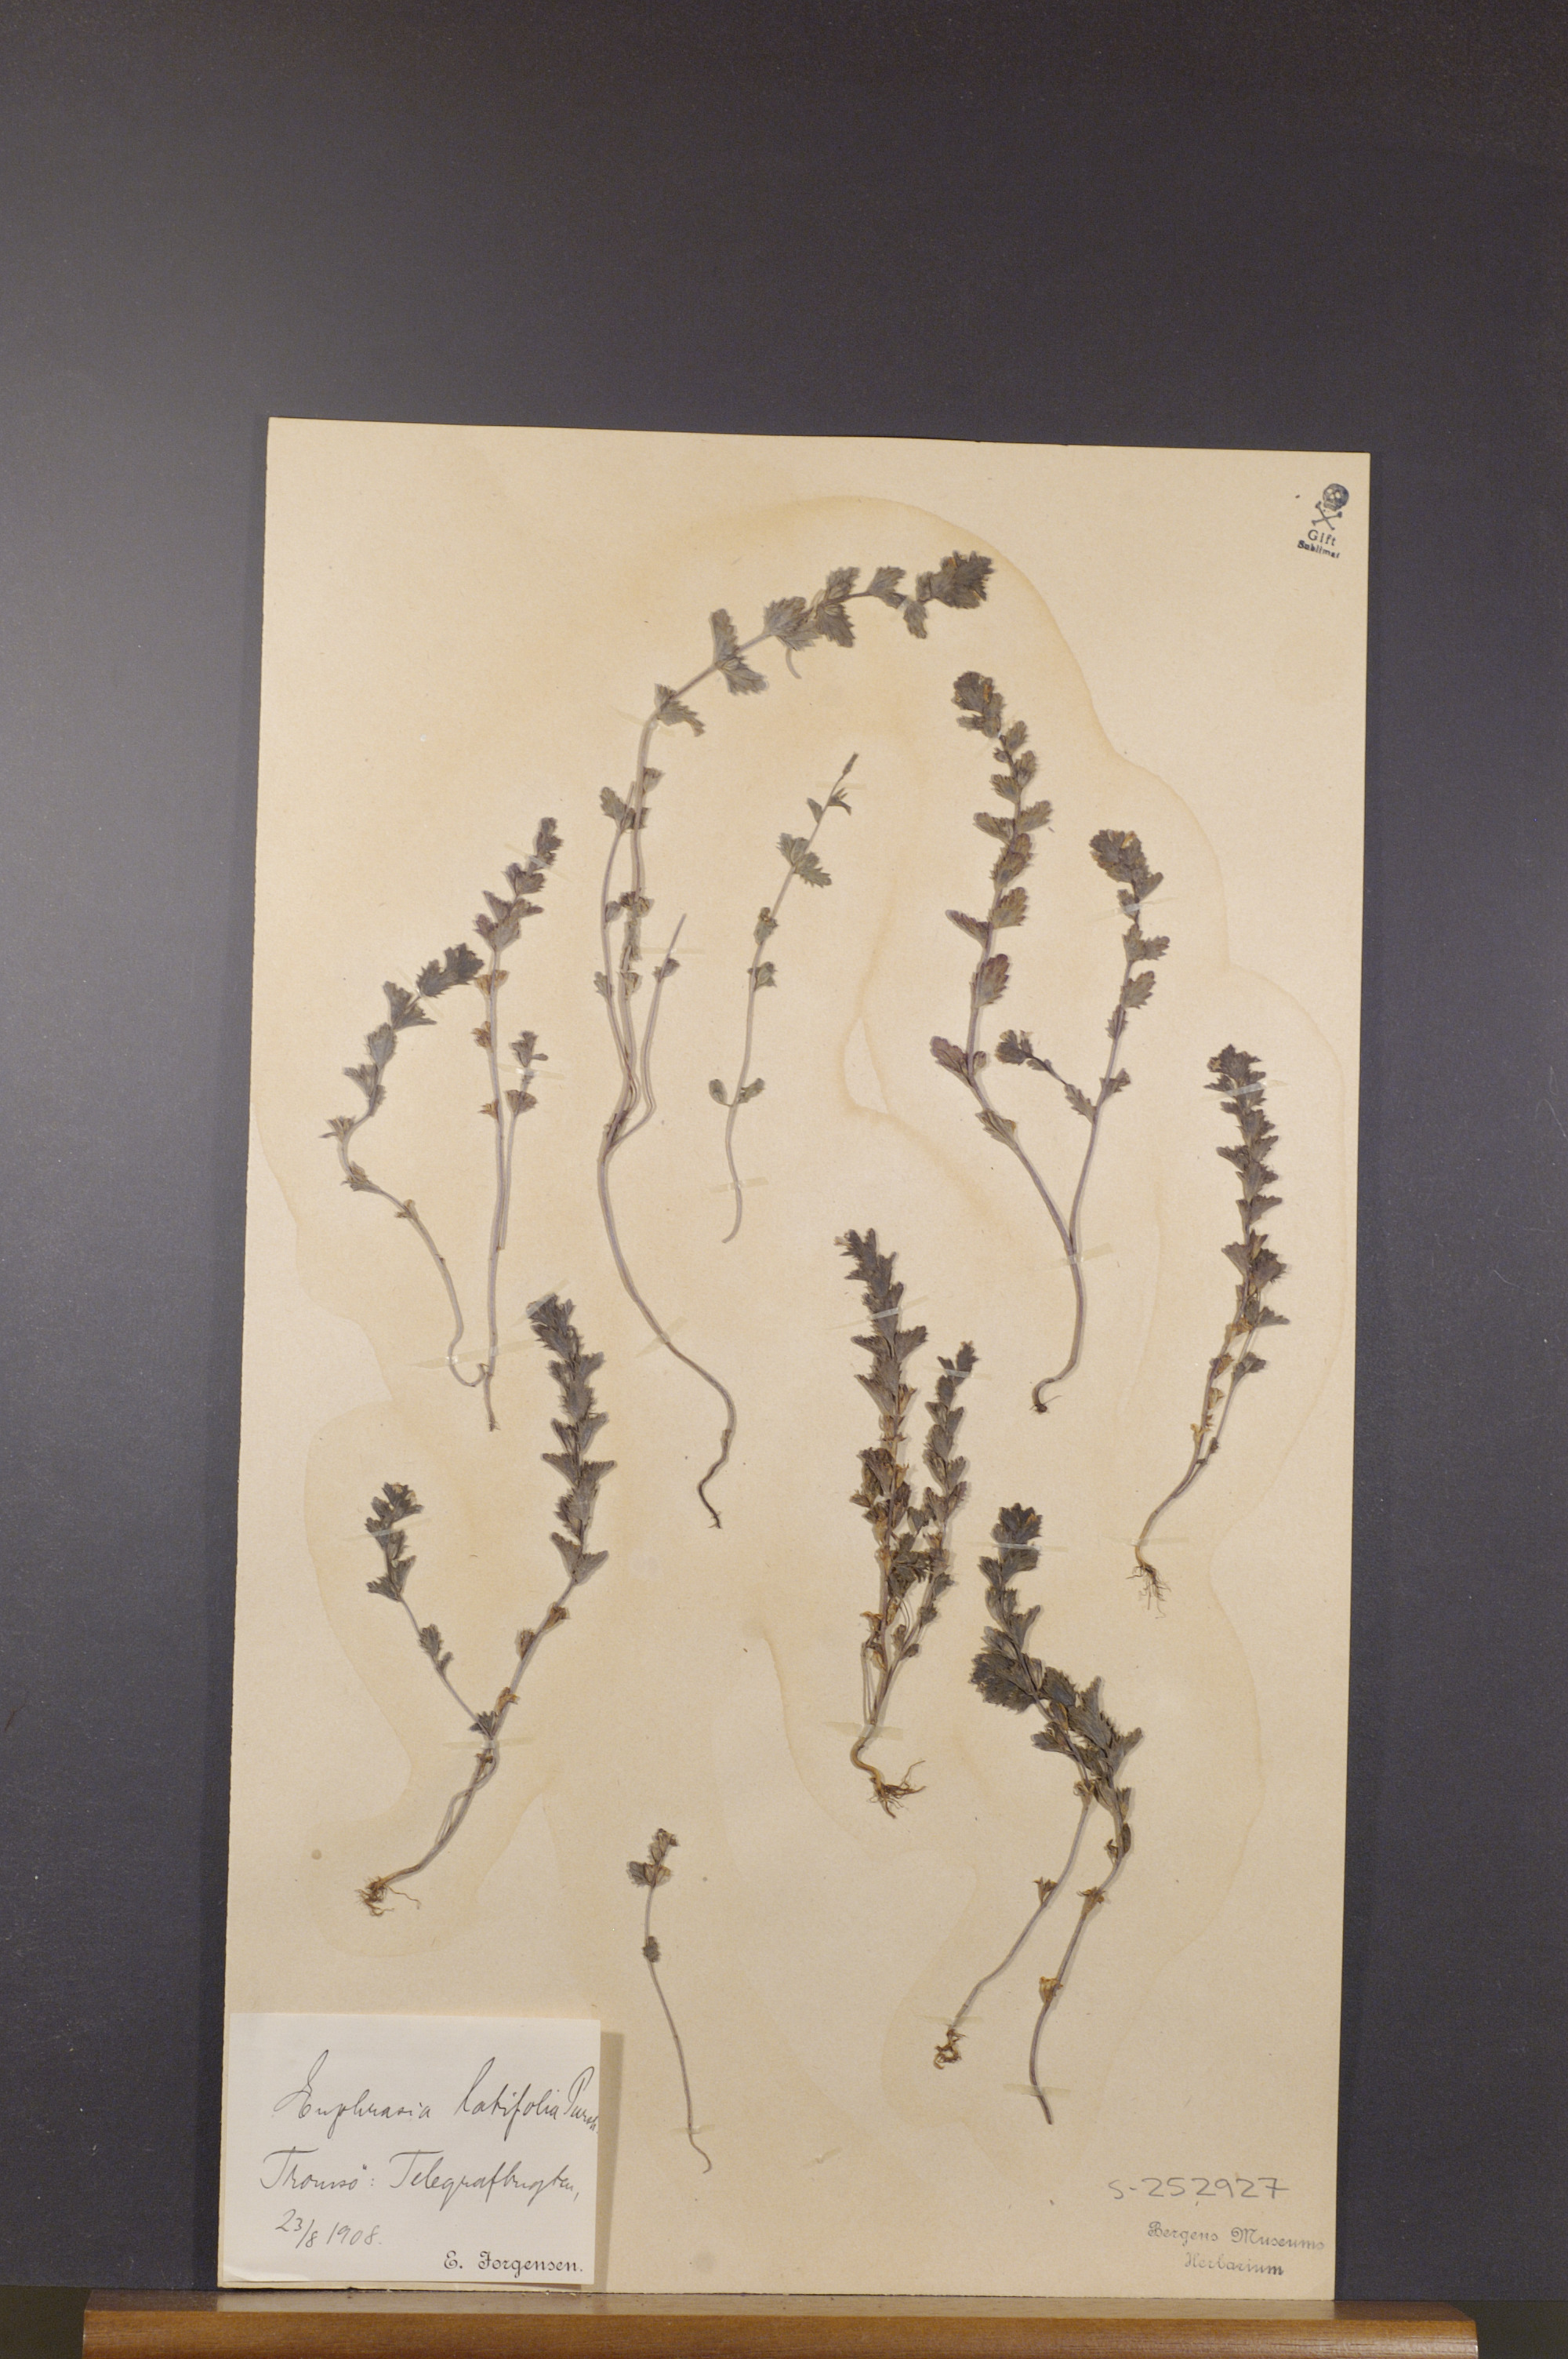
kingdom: Plantae
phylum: Tracheophyta
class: Magnoliopsida
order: Lamiales
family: Orobanchaceae
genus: Euphrasia
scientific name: Euphrasia wettsteinii
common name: Wettstein's eyebright
